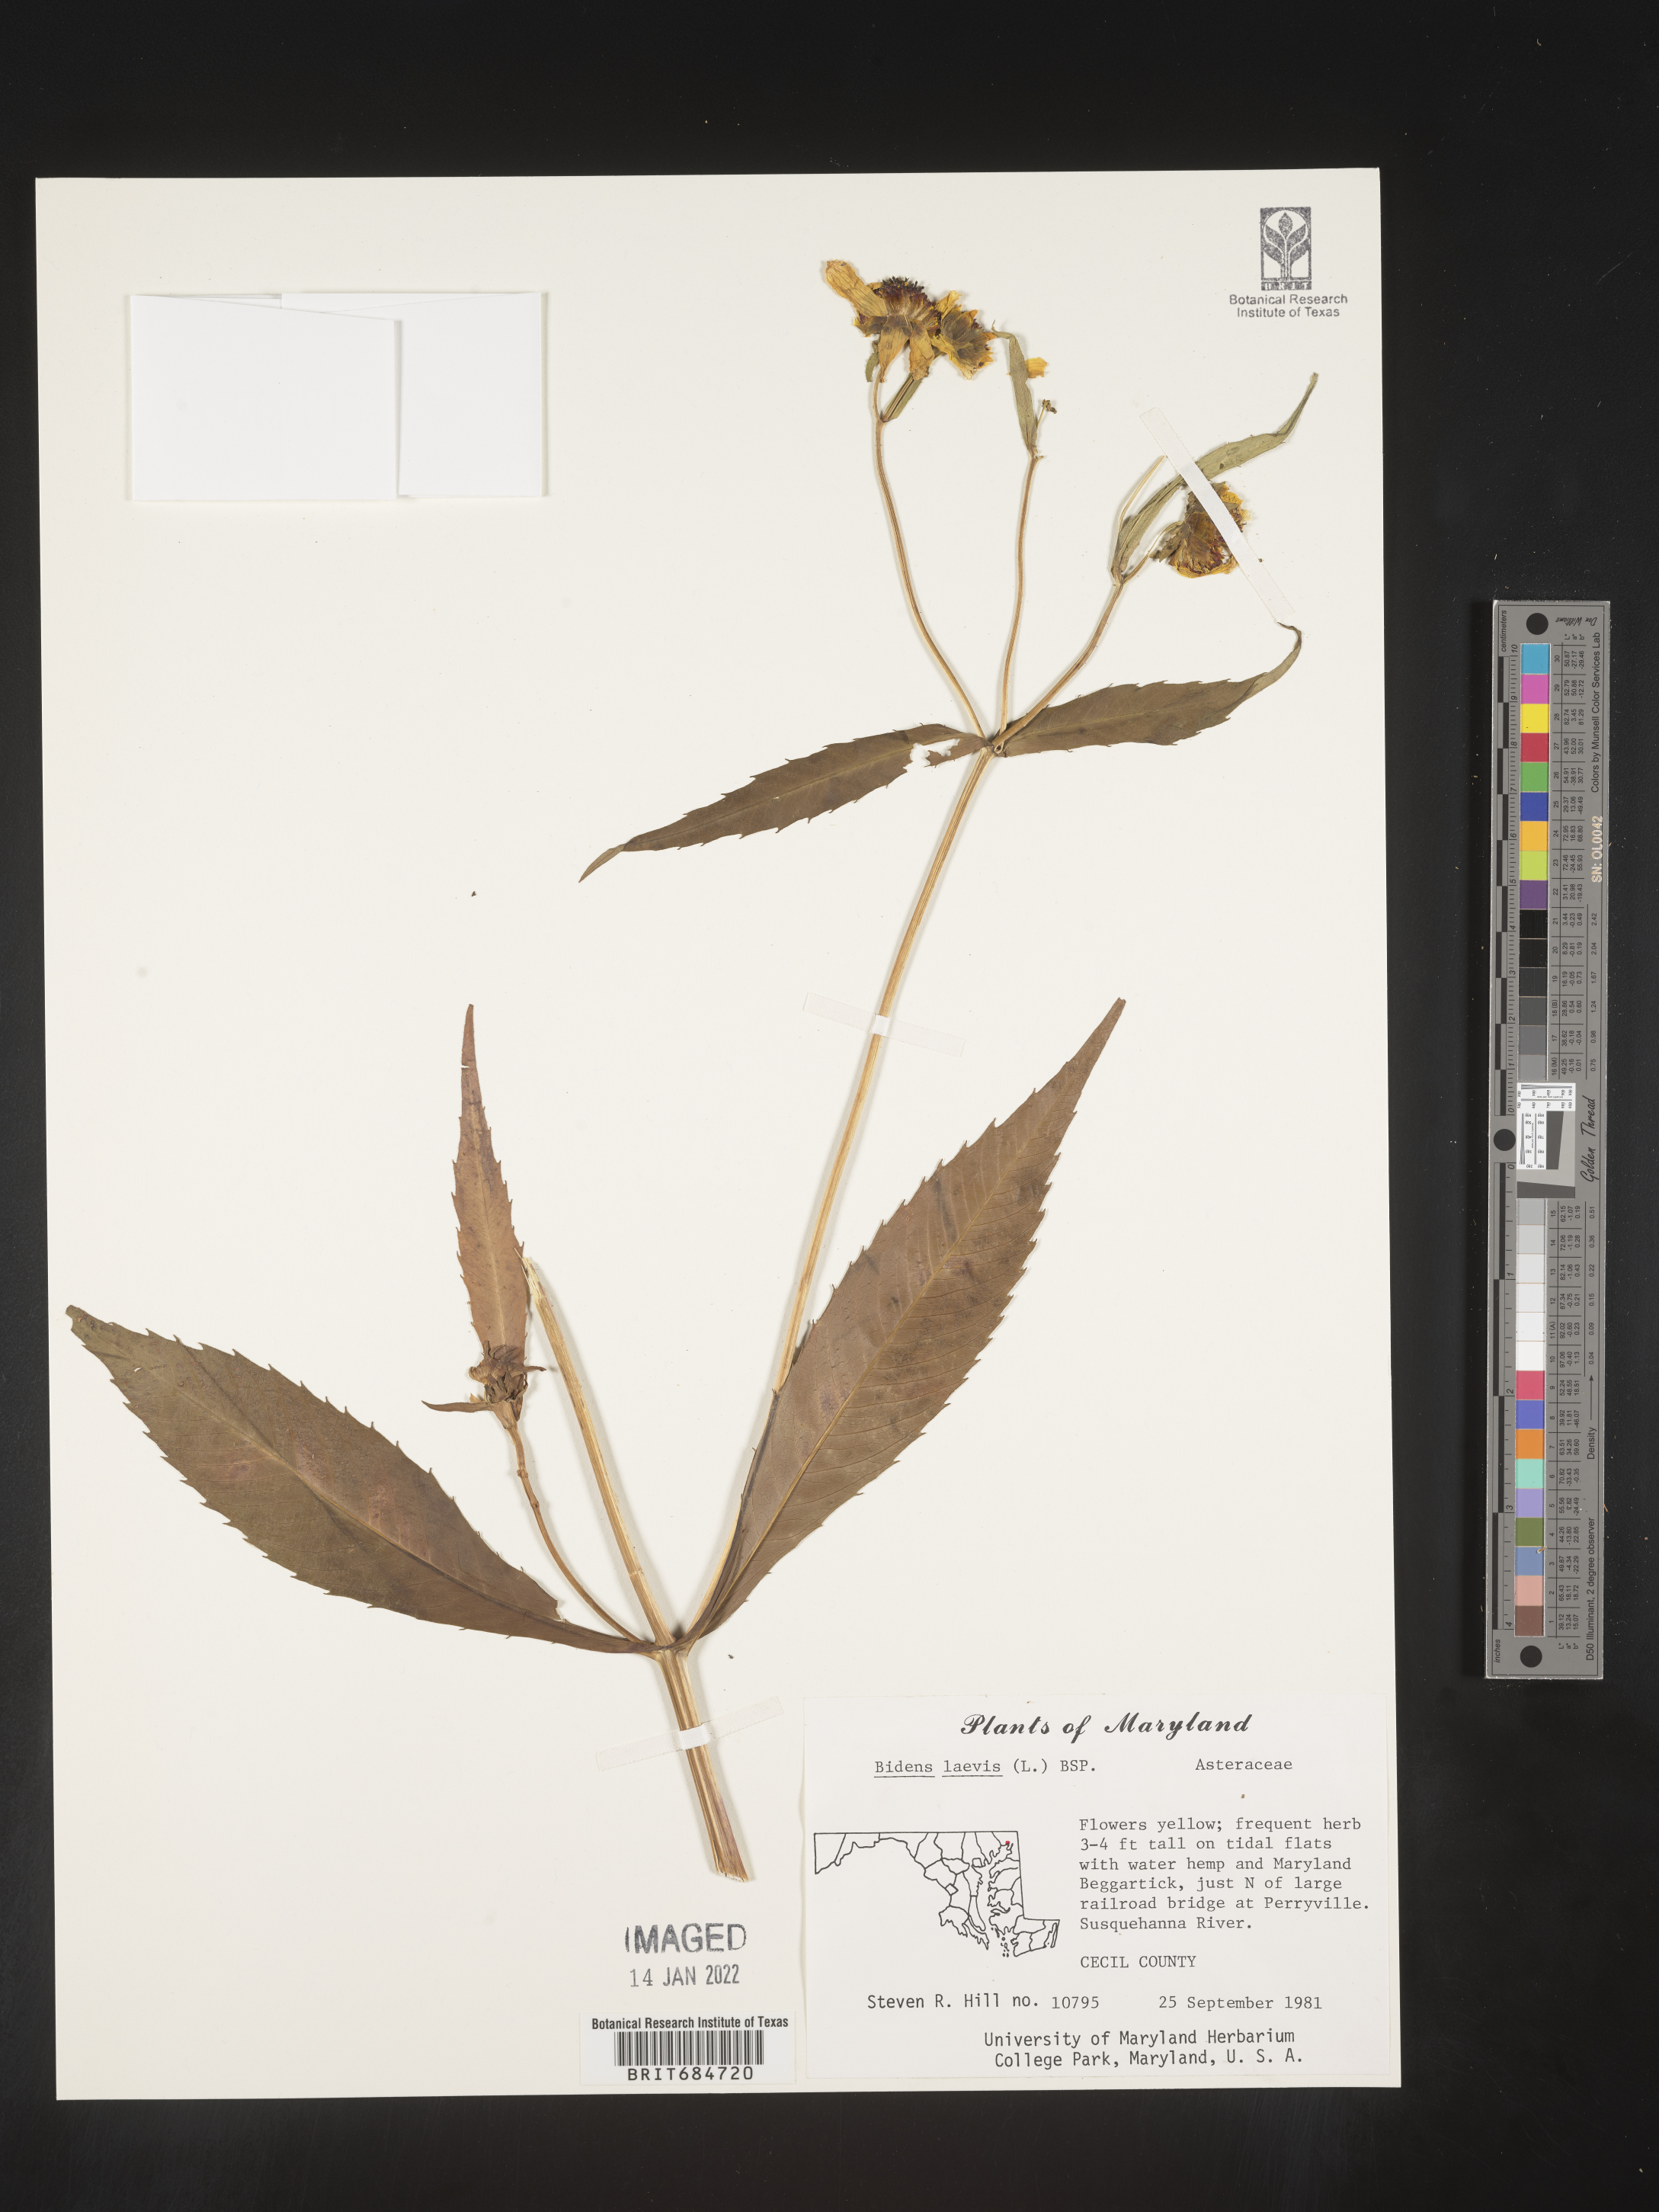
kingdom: Plantae
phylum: Tracheophyta
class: Magnoliopsida
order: Asterales
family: Asteraceae
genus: Bidens
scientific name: Bidens laevis
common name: Larger bur-marigold
